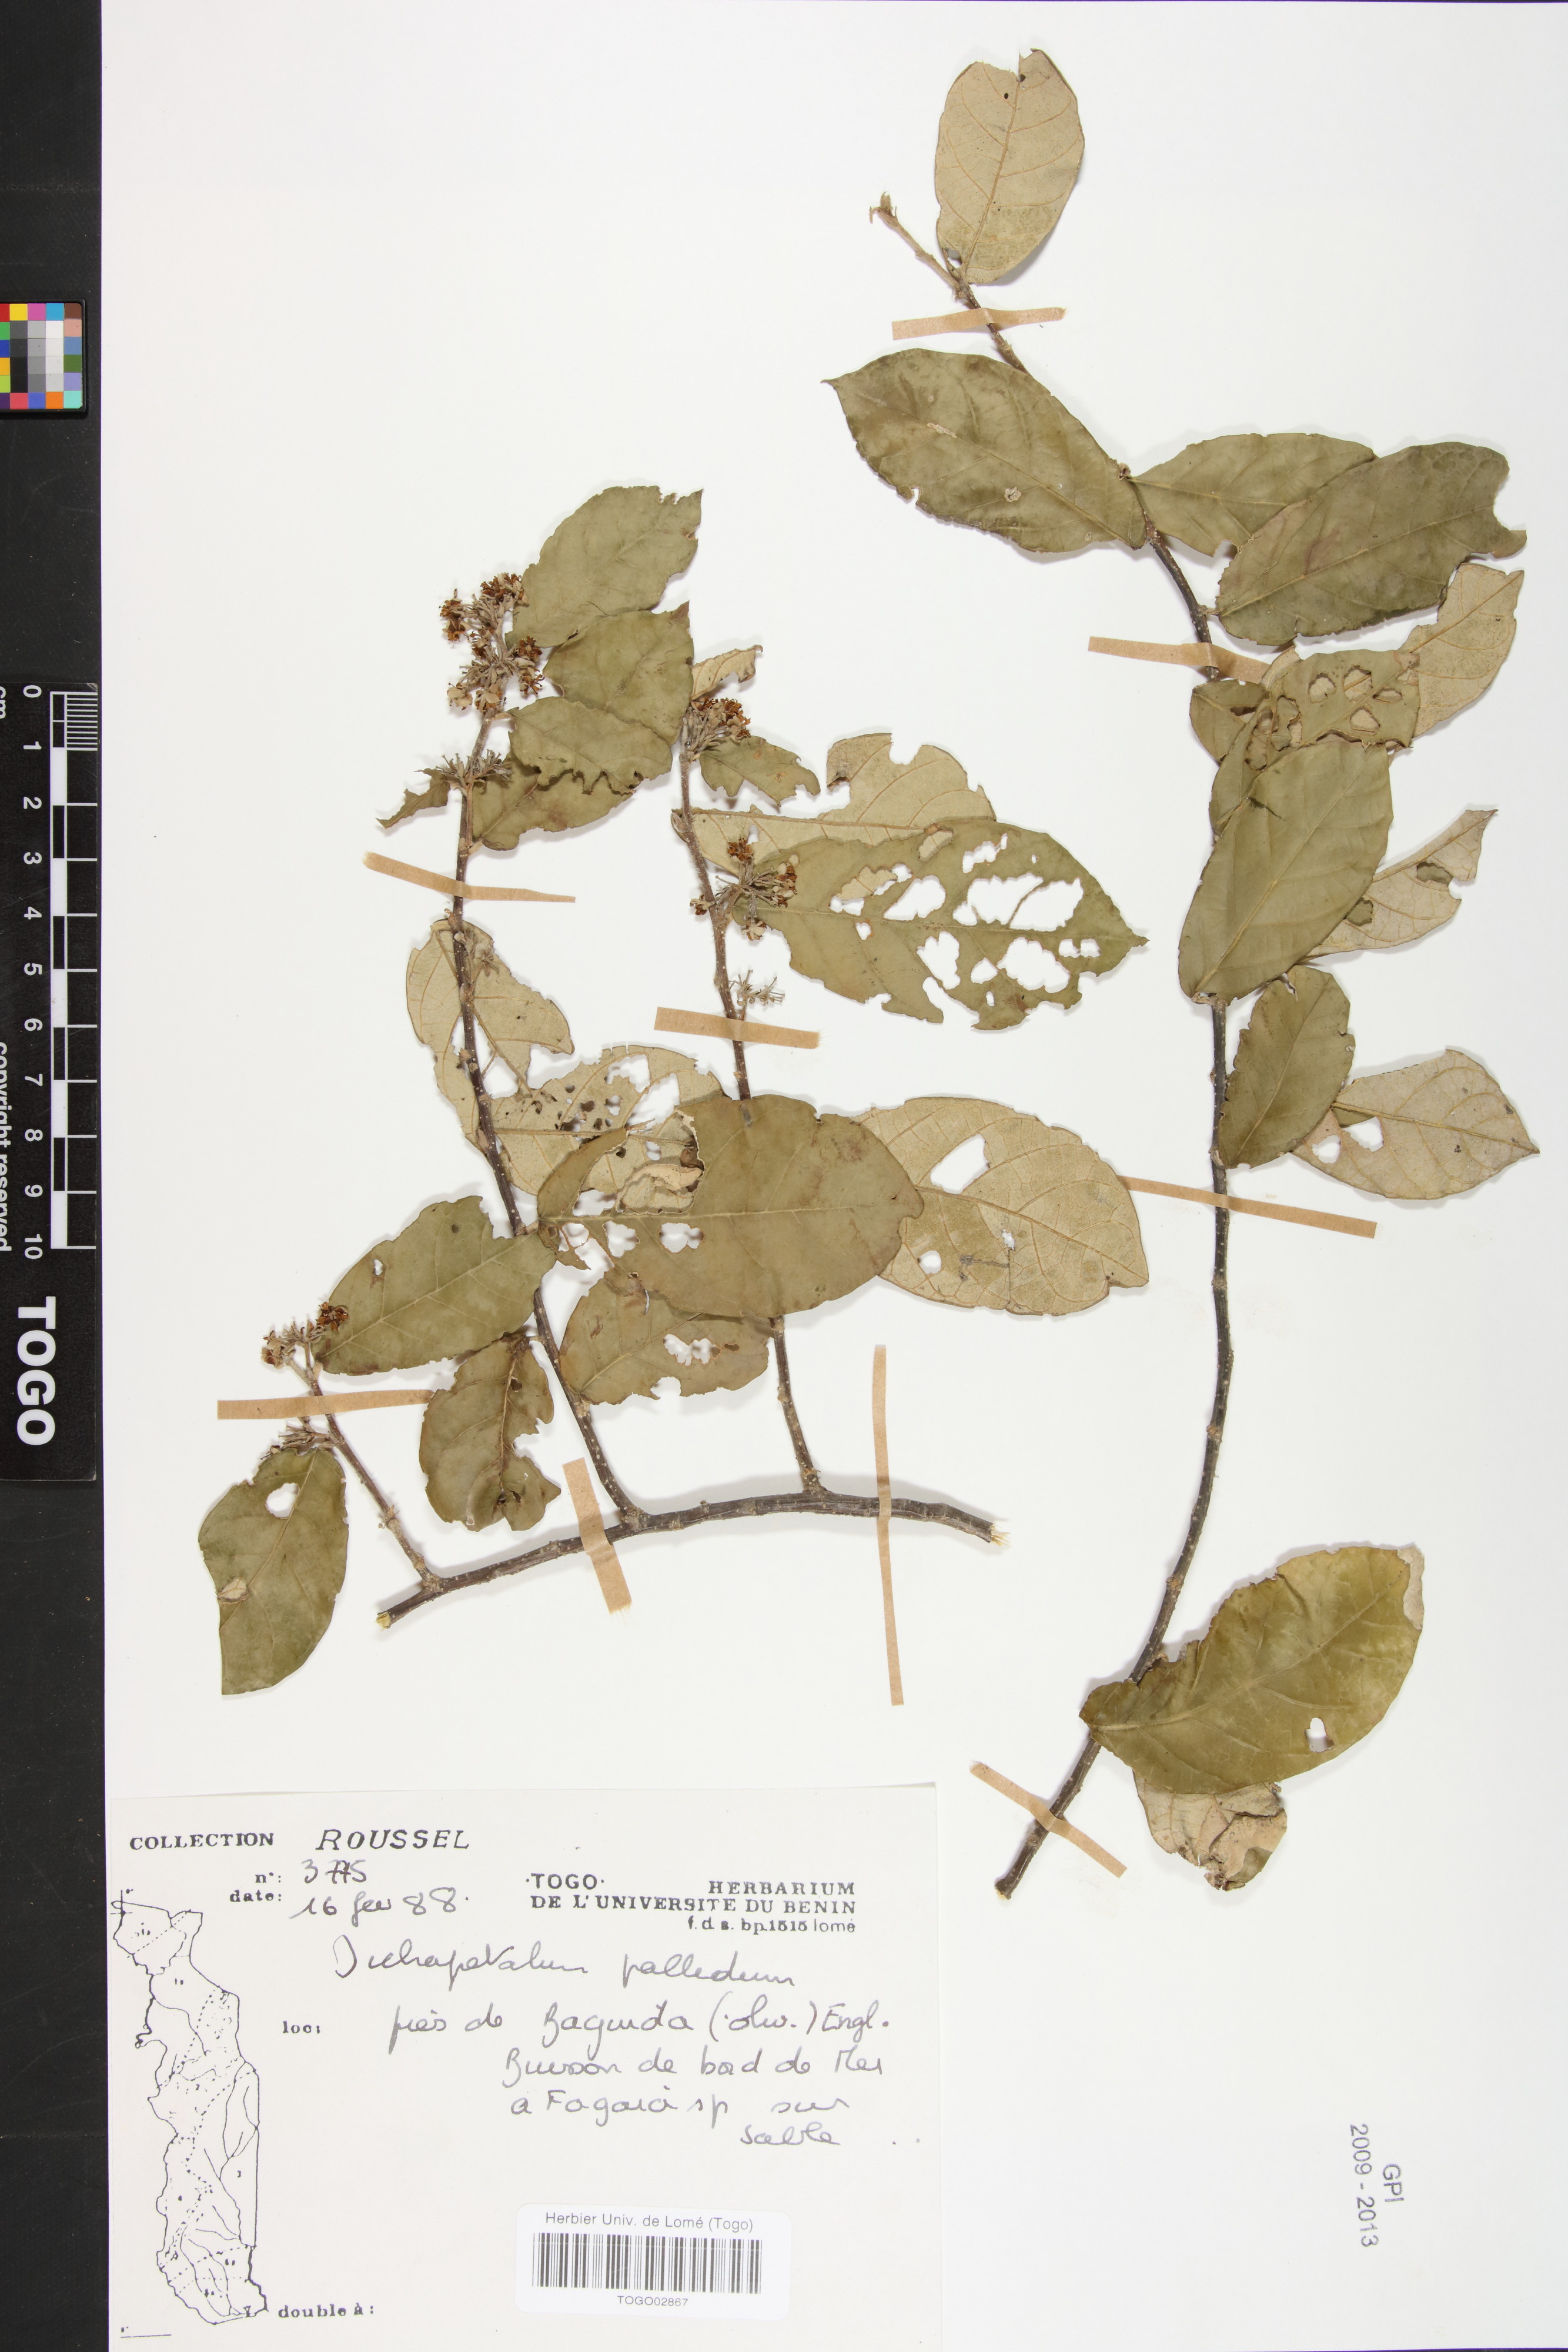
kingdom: Plantae
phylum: Tracheophyta
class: Magnoliopsida
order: Malpighiales
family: Dichapetalaceae
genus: Dichapetalum
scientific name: Dichapetalum pallidum
